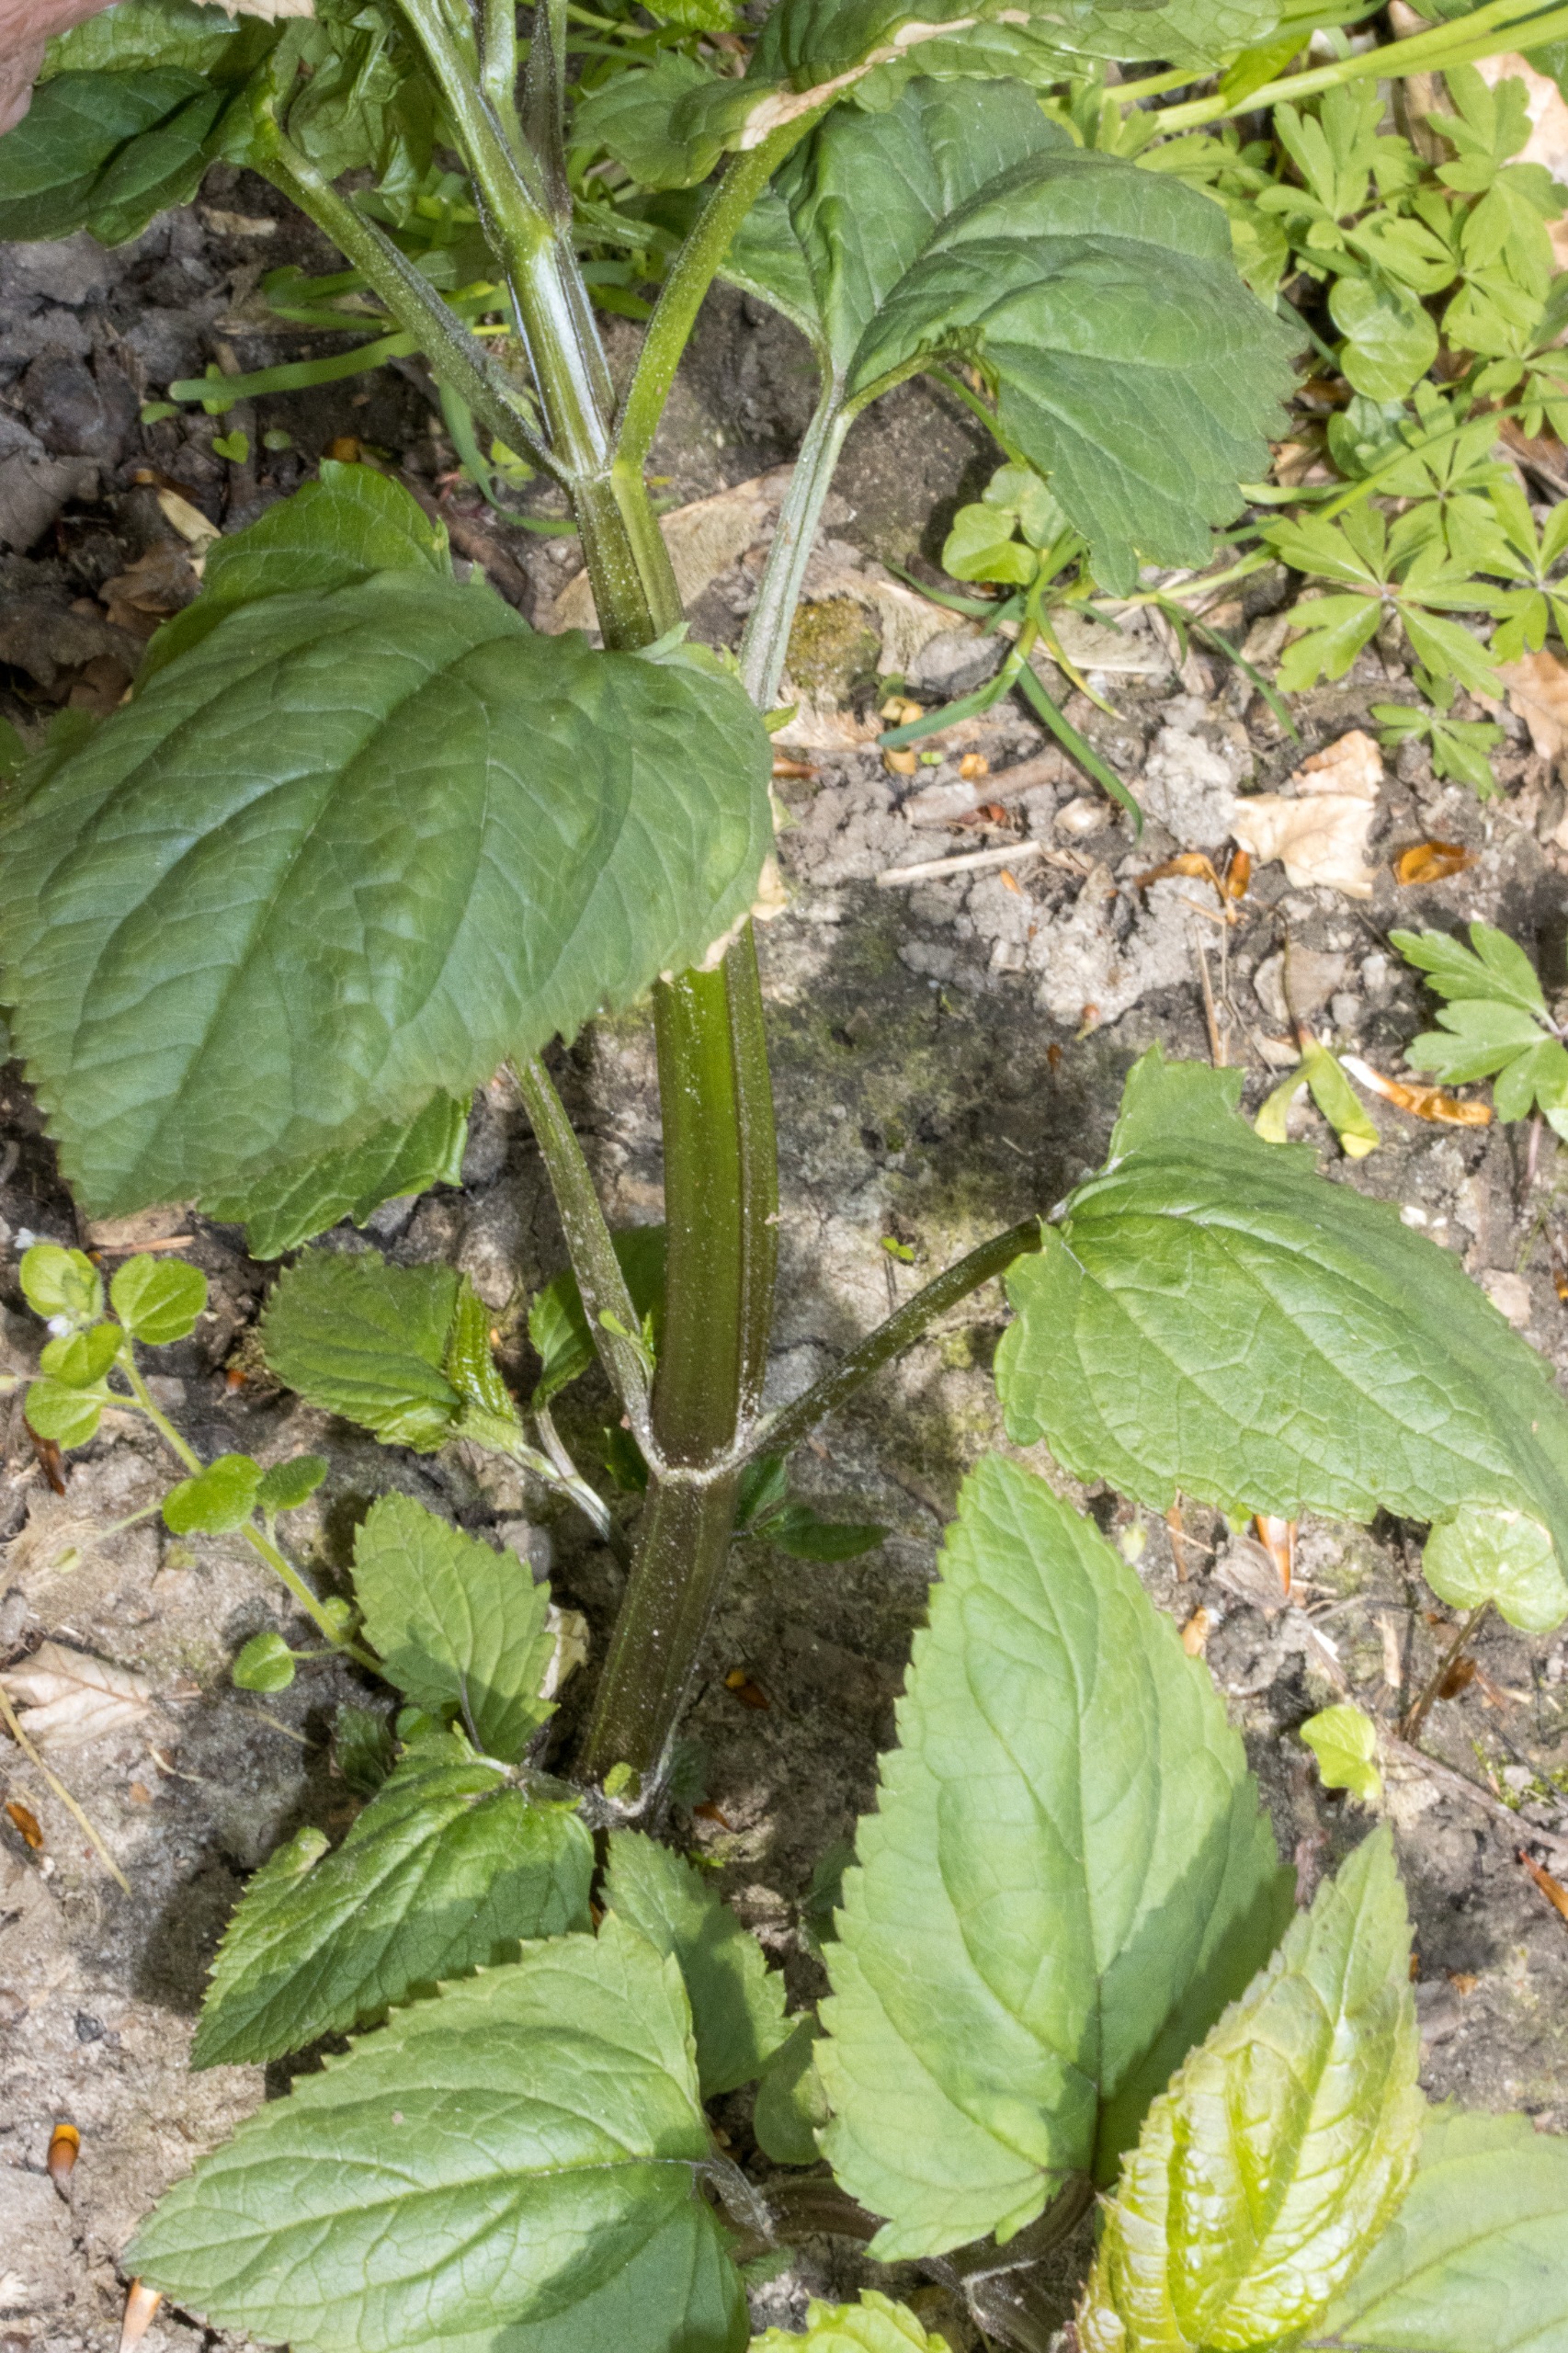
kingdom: Plantae
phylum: Tracheophyta
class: Magnoliopsida
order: Lamiales
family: Scrophulariaceae
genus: Scrophularia
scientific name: Scrophularia nodosa
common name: Knoldet brunrod
